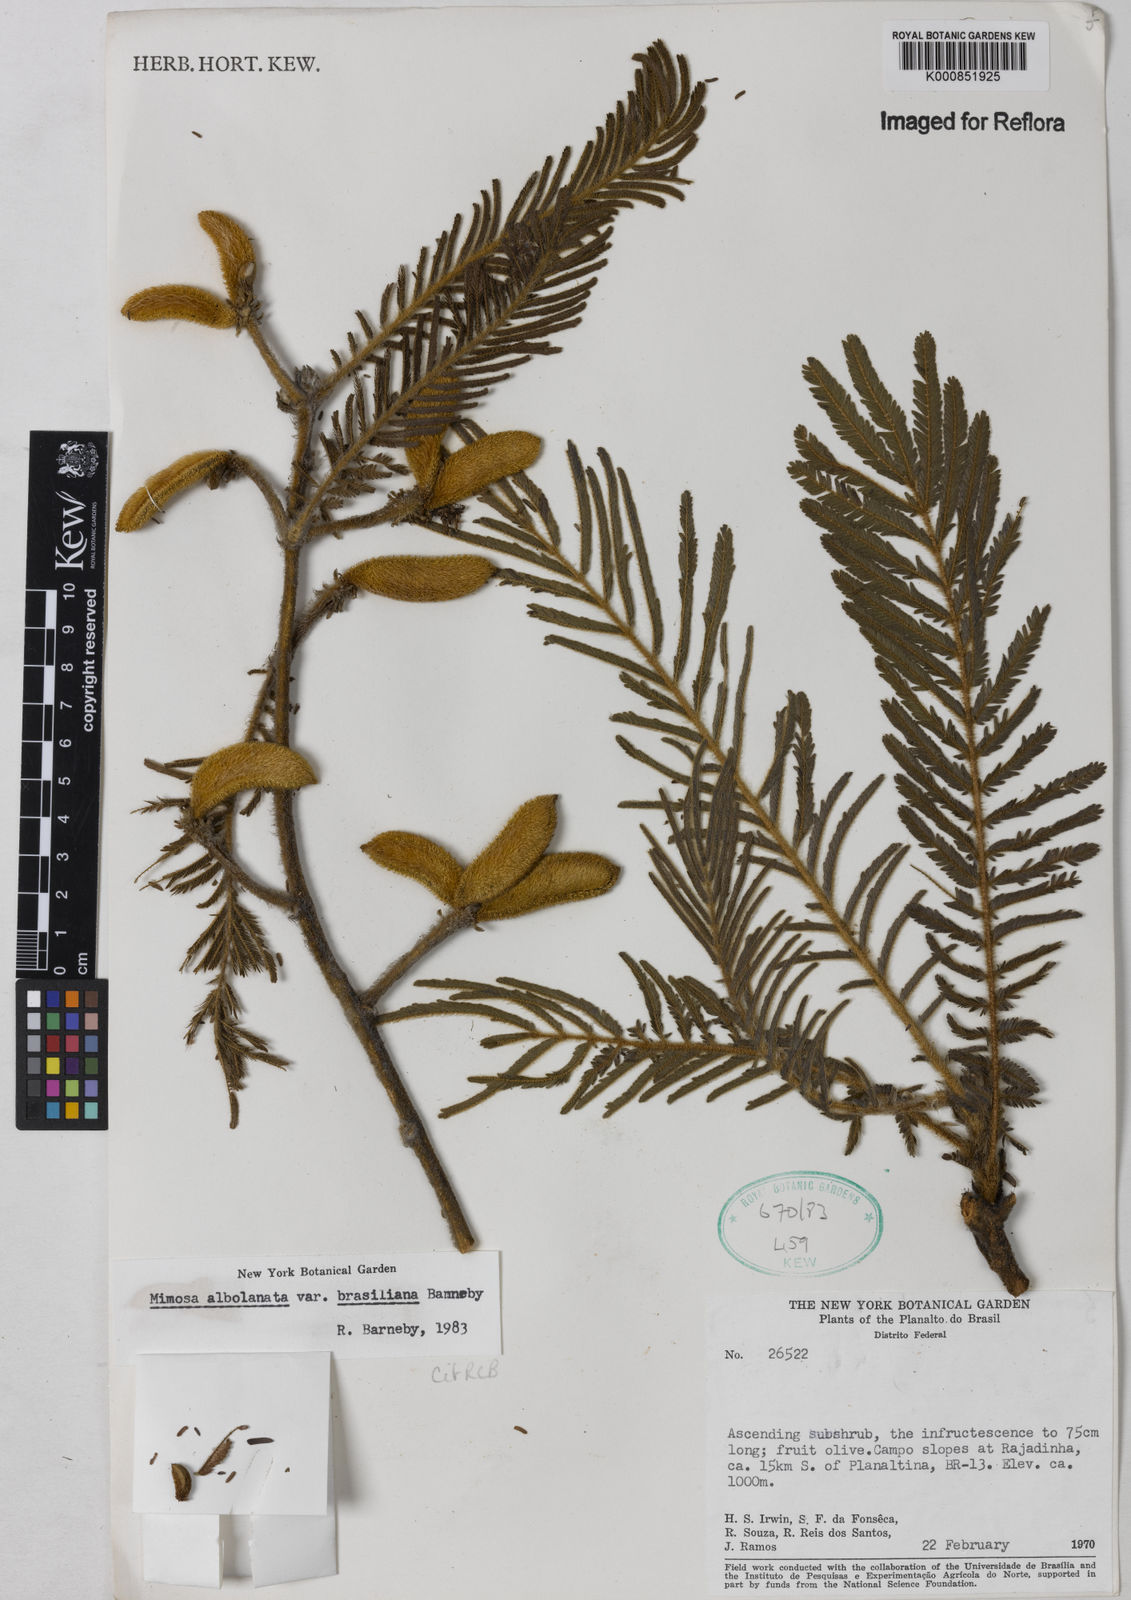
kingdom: Plantae
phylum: Tracheophyta
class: Magnoliopsida
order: Fabales
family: Fabaceae
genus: Mimosa
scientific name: Mimosa albolanata
